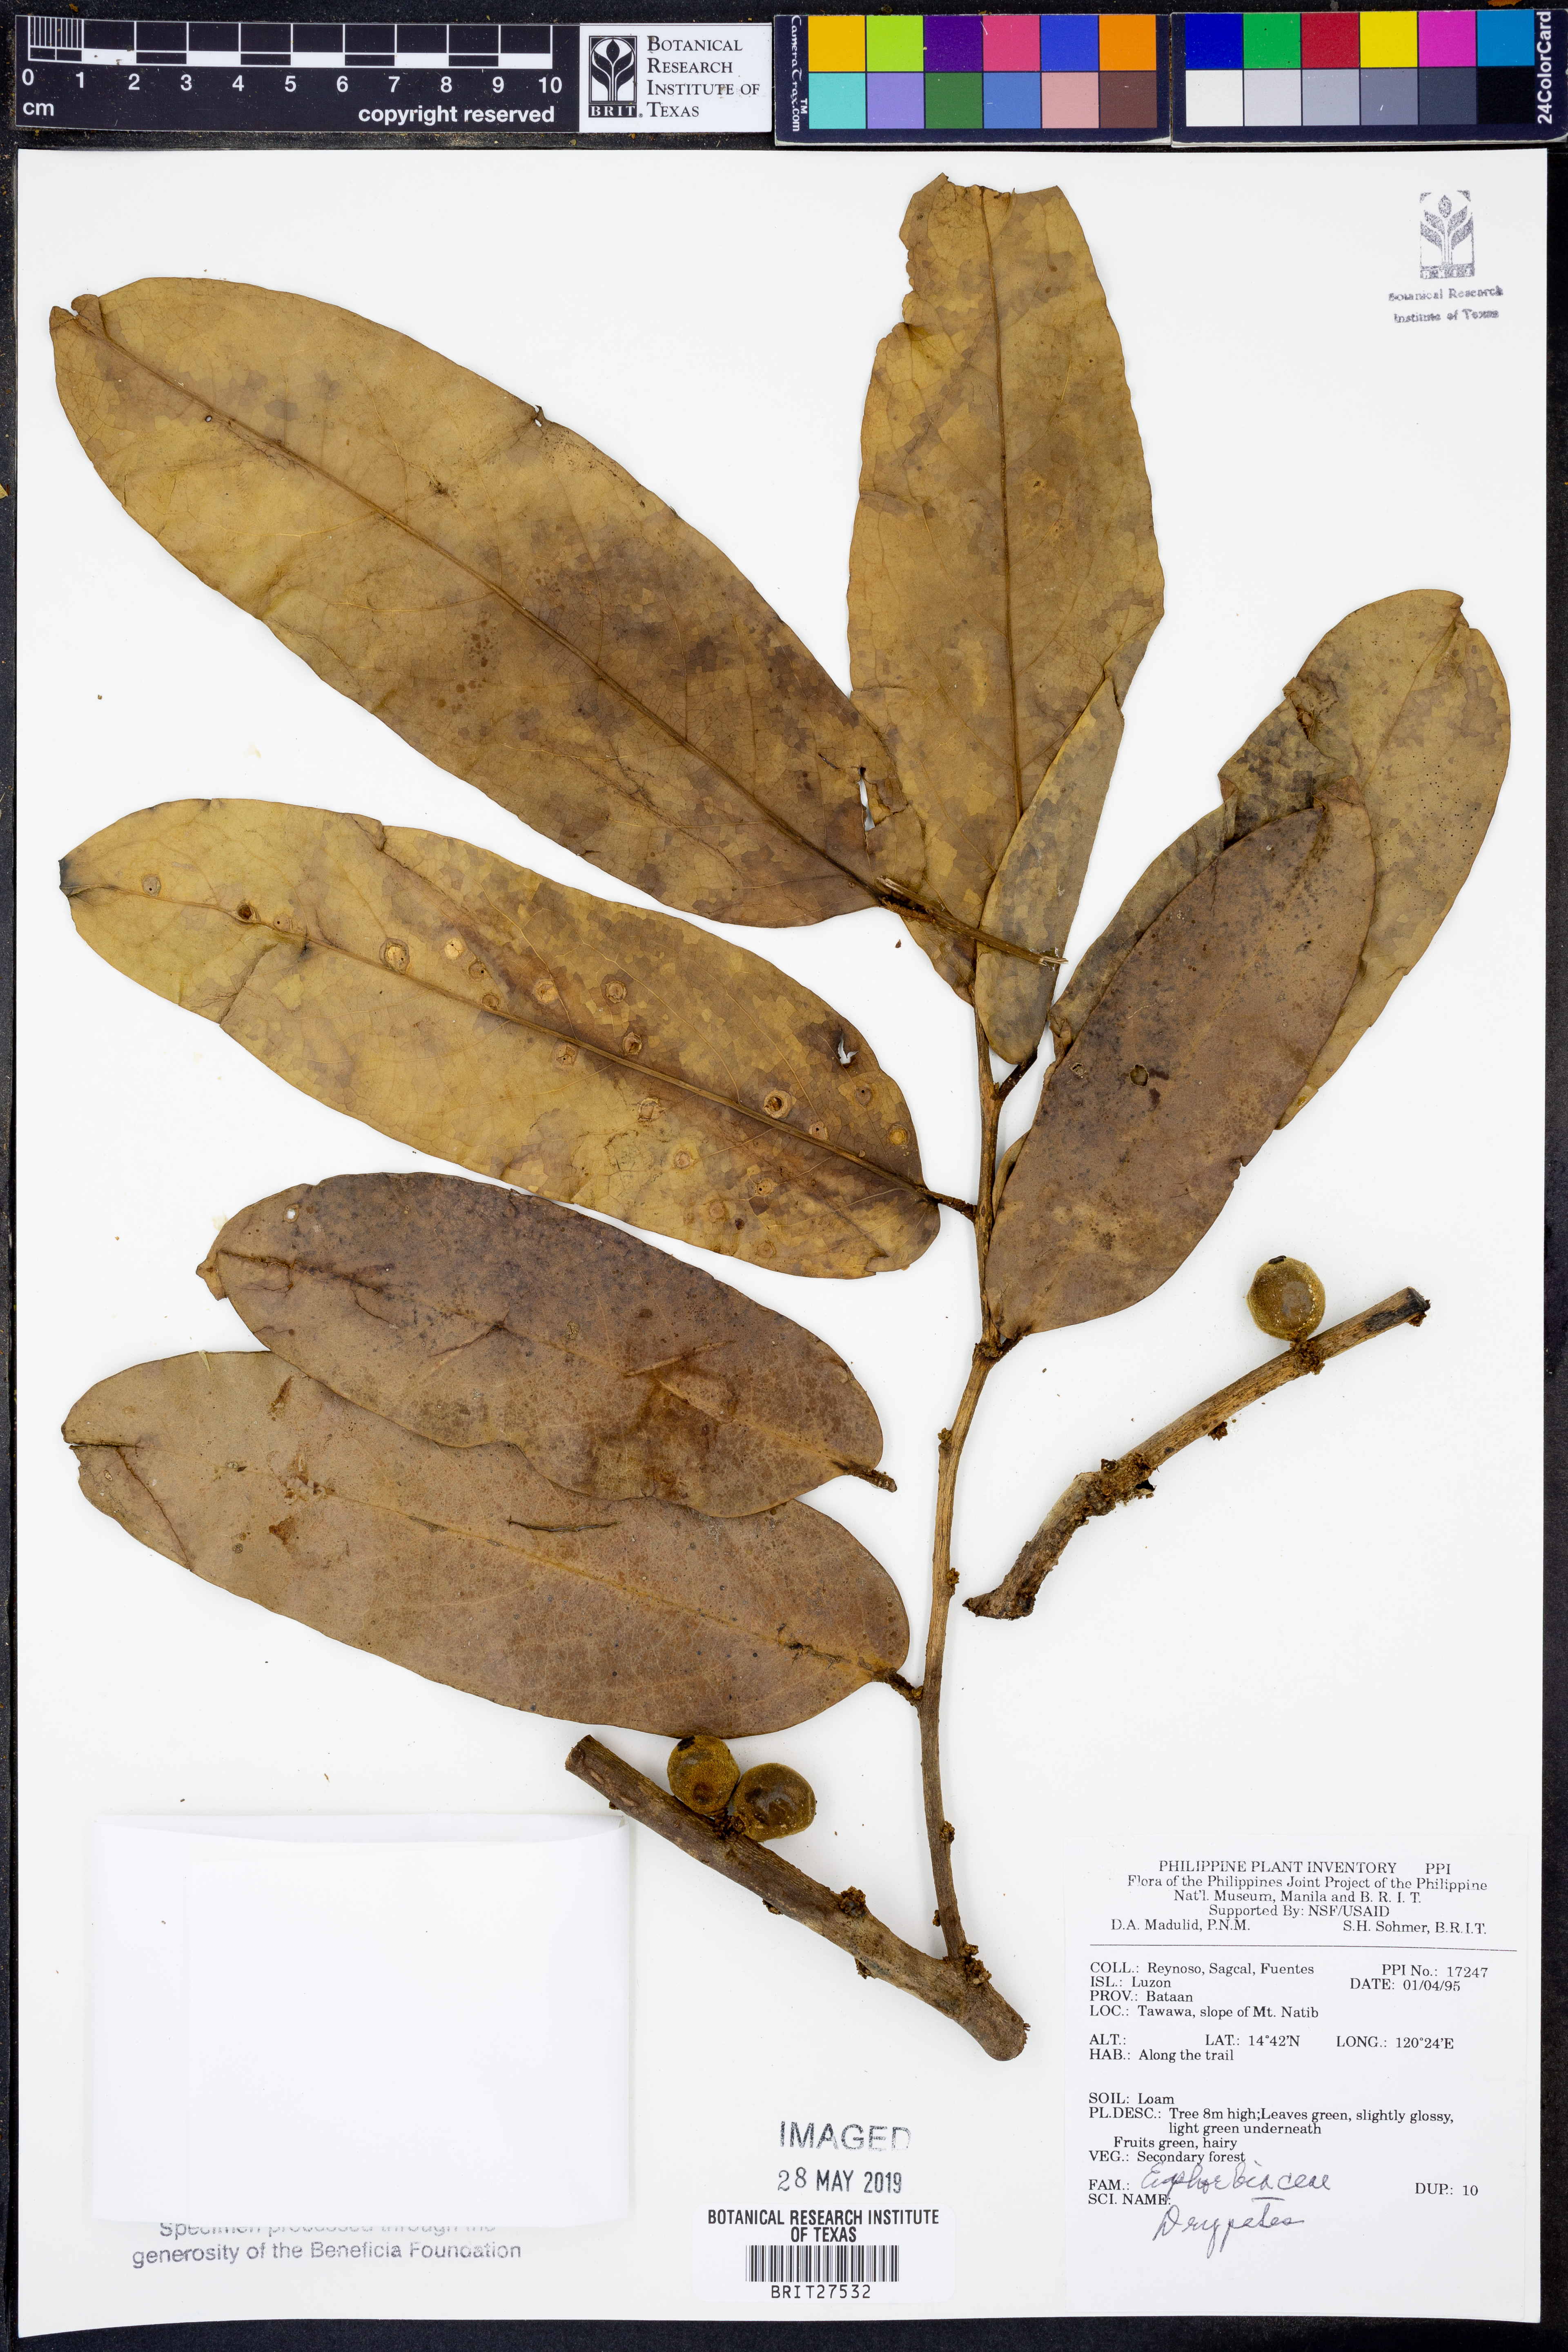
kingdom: Plantae
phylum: Tracheophyta
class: Magnoliopsida
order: Malpighiales
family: Putranjivaceae
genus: Drypetes
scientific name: Drypetes
